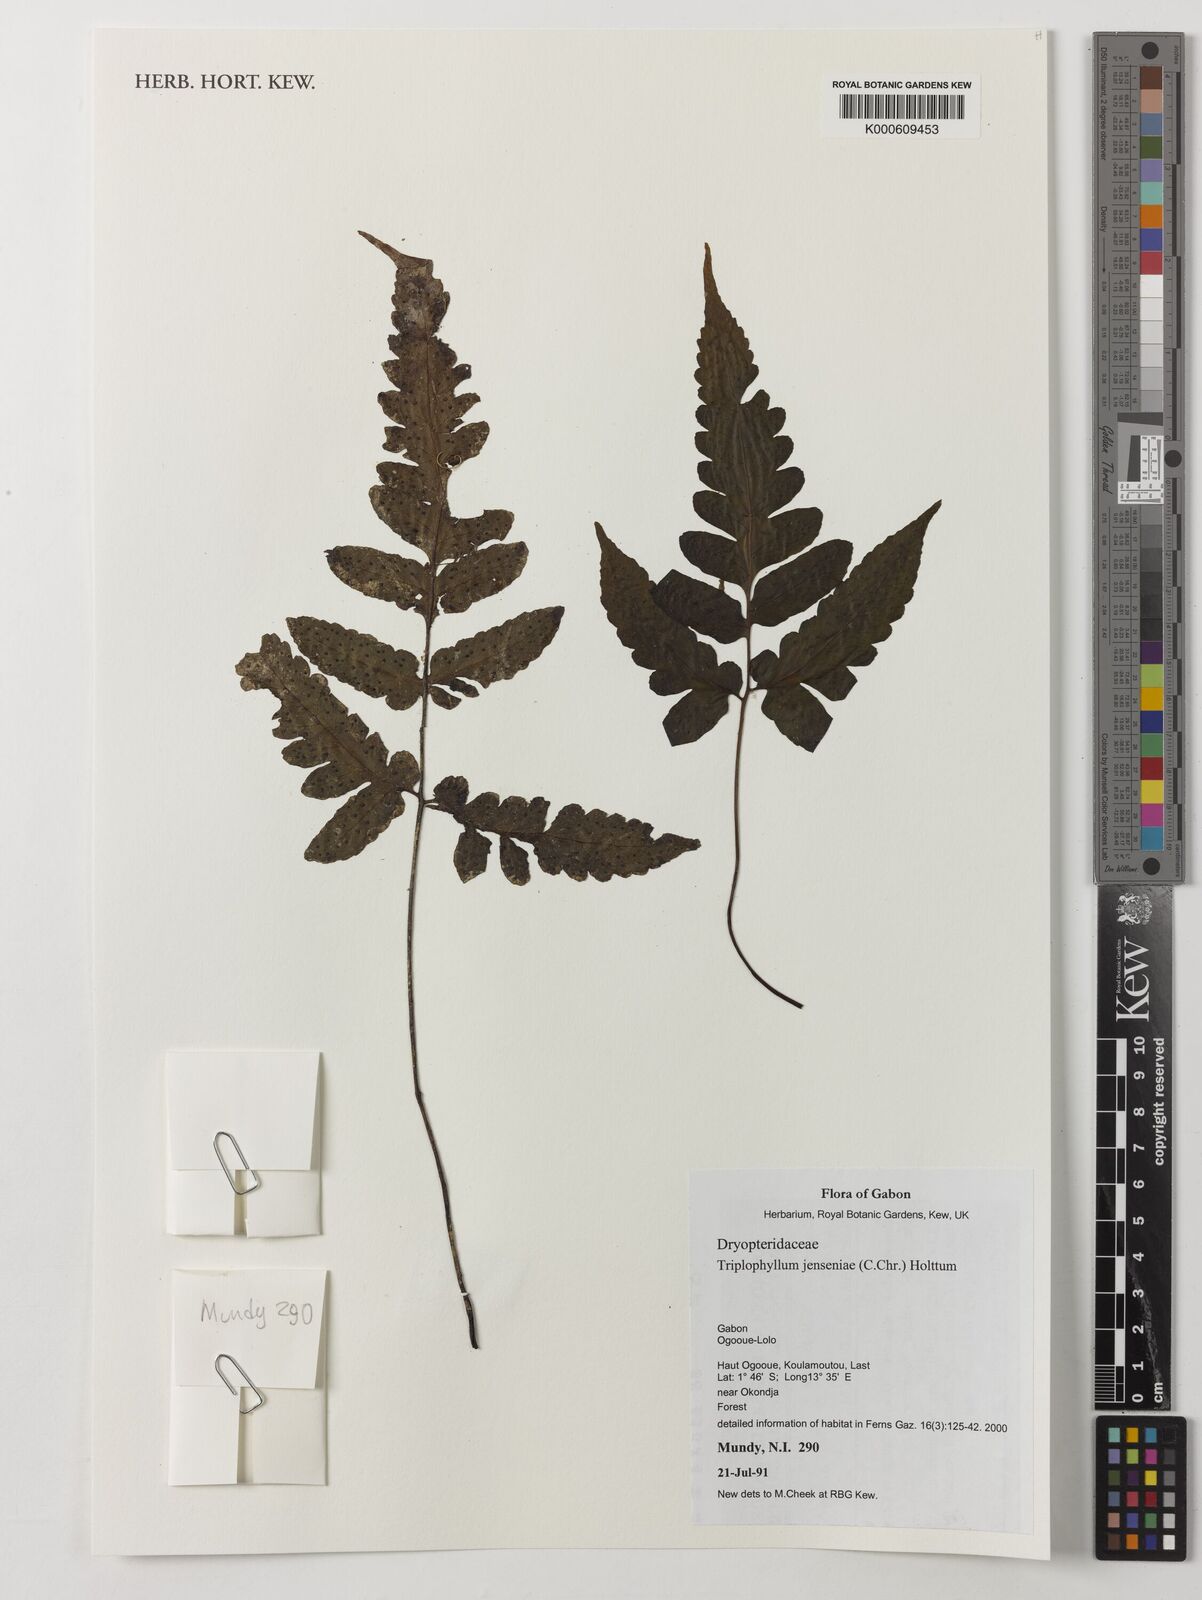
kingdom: Plantae
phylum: Tracheophyta
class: Polypodiopsida
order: Polypodiales
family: Tectariaceae
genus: Triplophyllum
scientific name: Triplophyllum jenseniae
